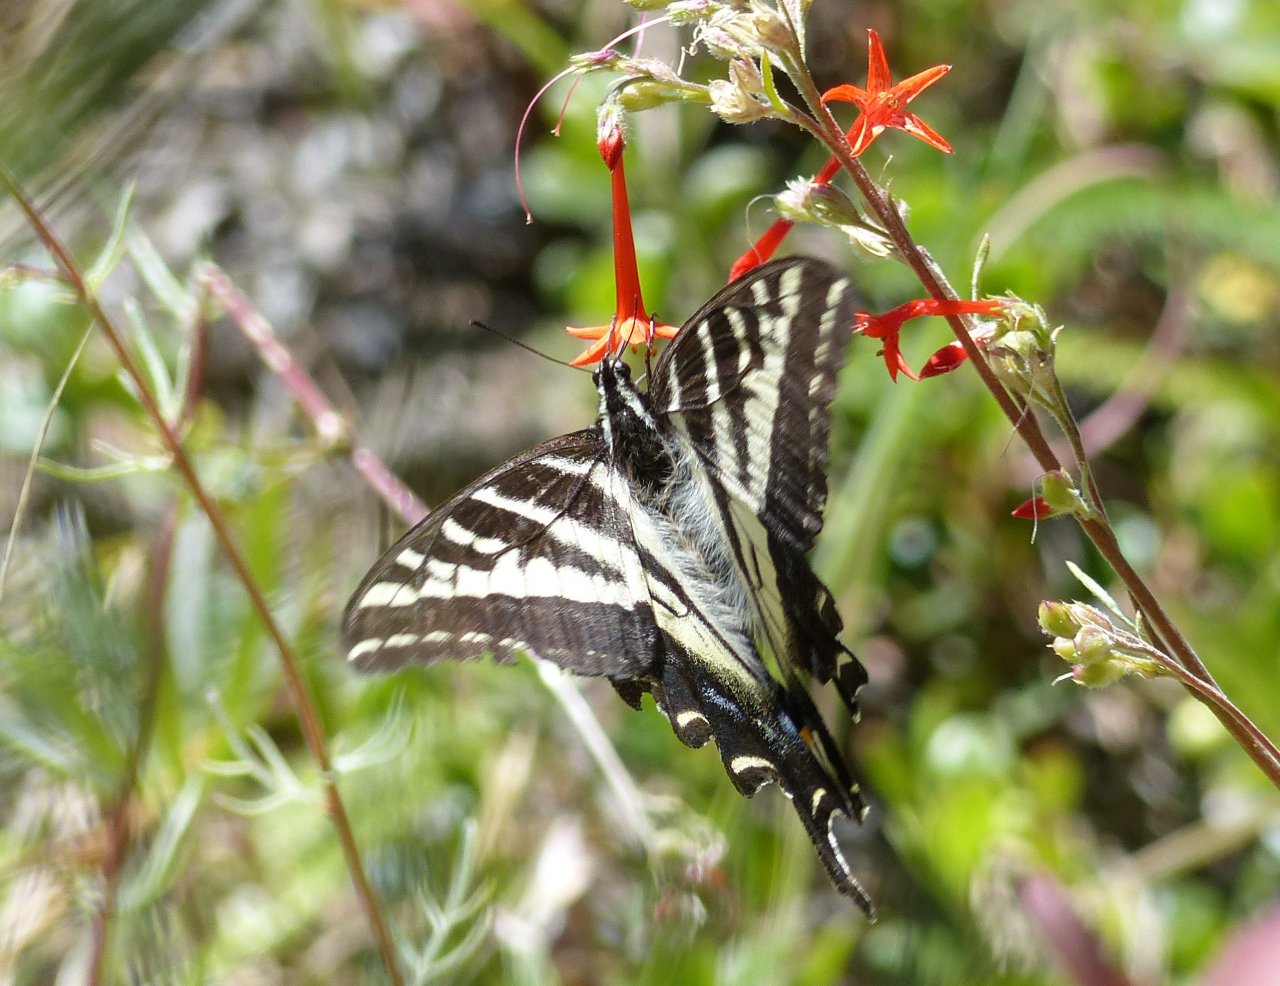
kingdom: Animalia
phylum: Arthropoda
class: Insecta
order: Lepidoptera
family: Papilionidae
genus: Pterourus
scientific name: Pterourus eurymedon
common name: Pale Swallowtail
